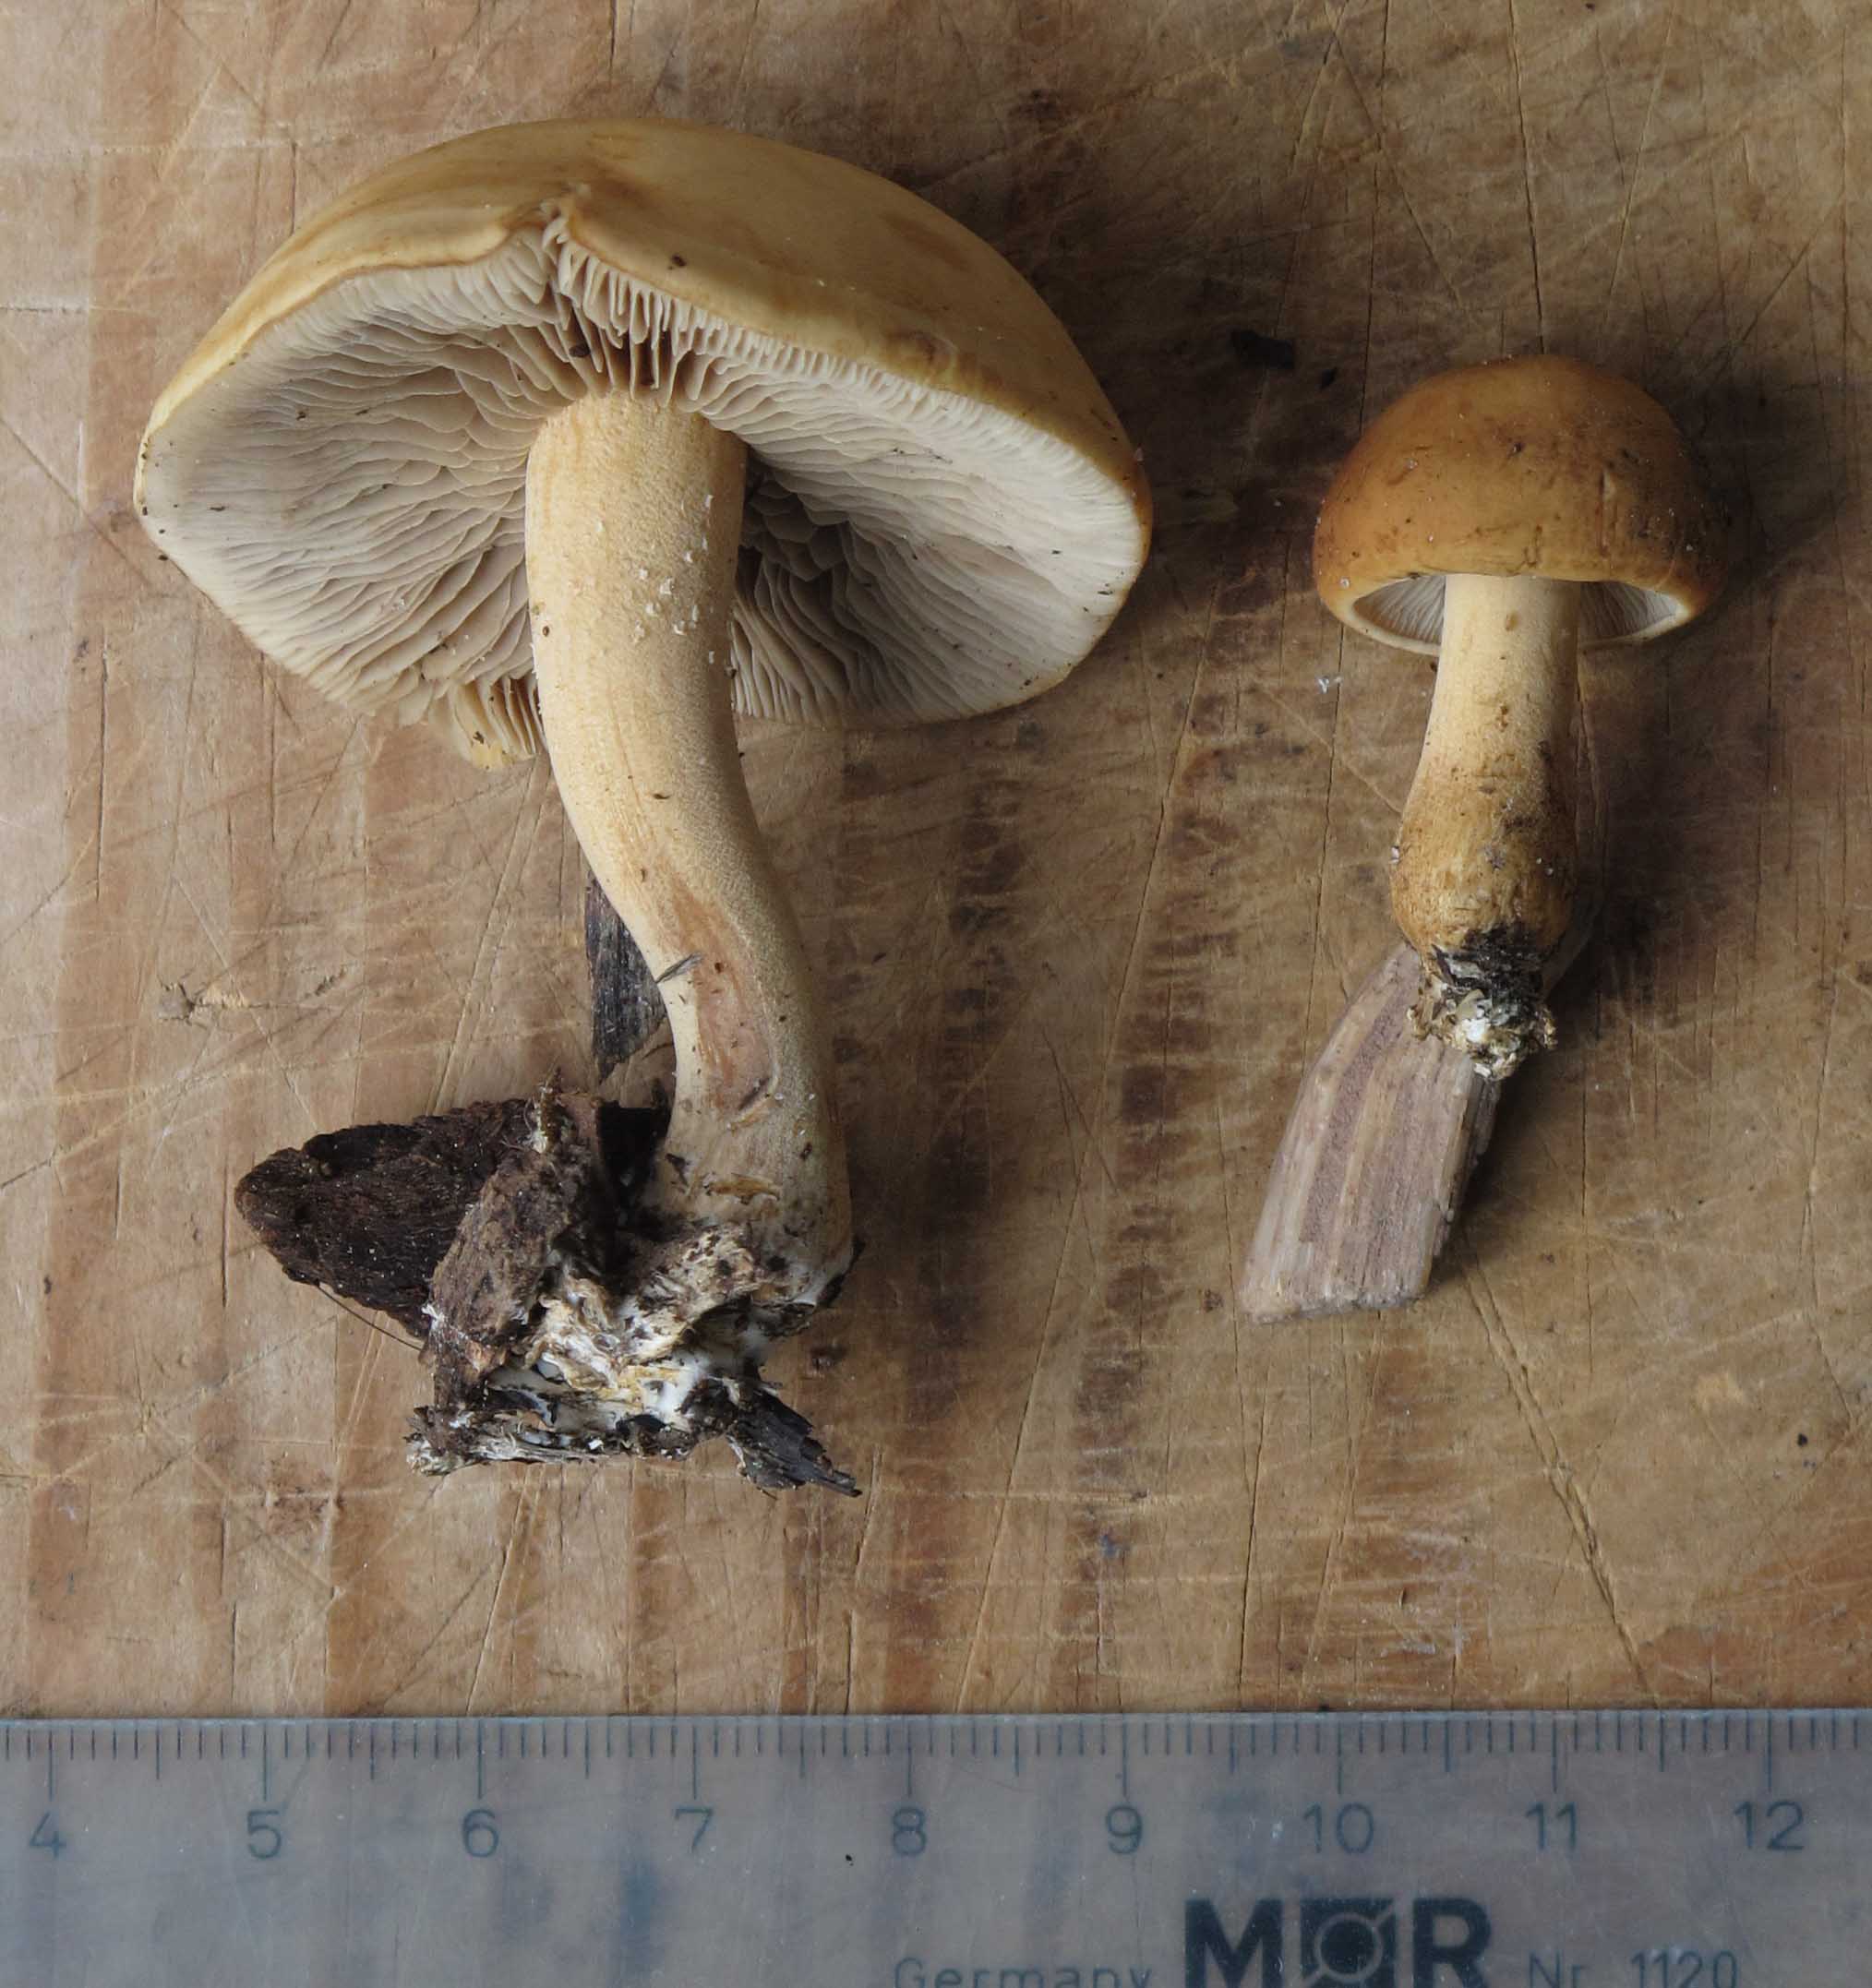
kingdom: Fungi
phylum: Basidiomycota
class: Agaricomycetes
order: Agaricales
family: Strophariaceae
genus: Agrocybe
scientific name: Agrocybe putaminum
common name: træflis-agerhat
